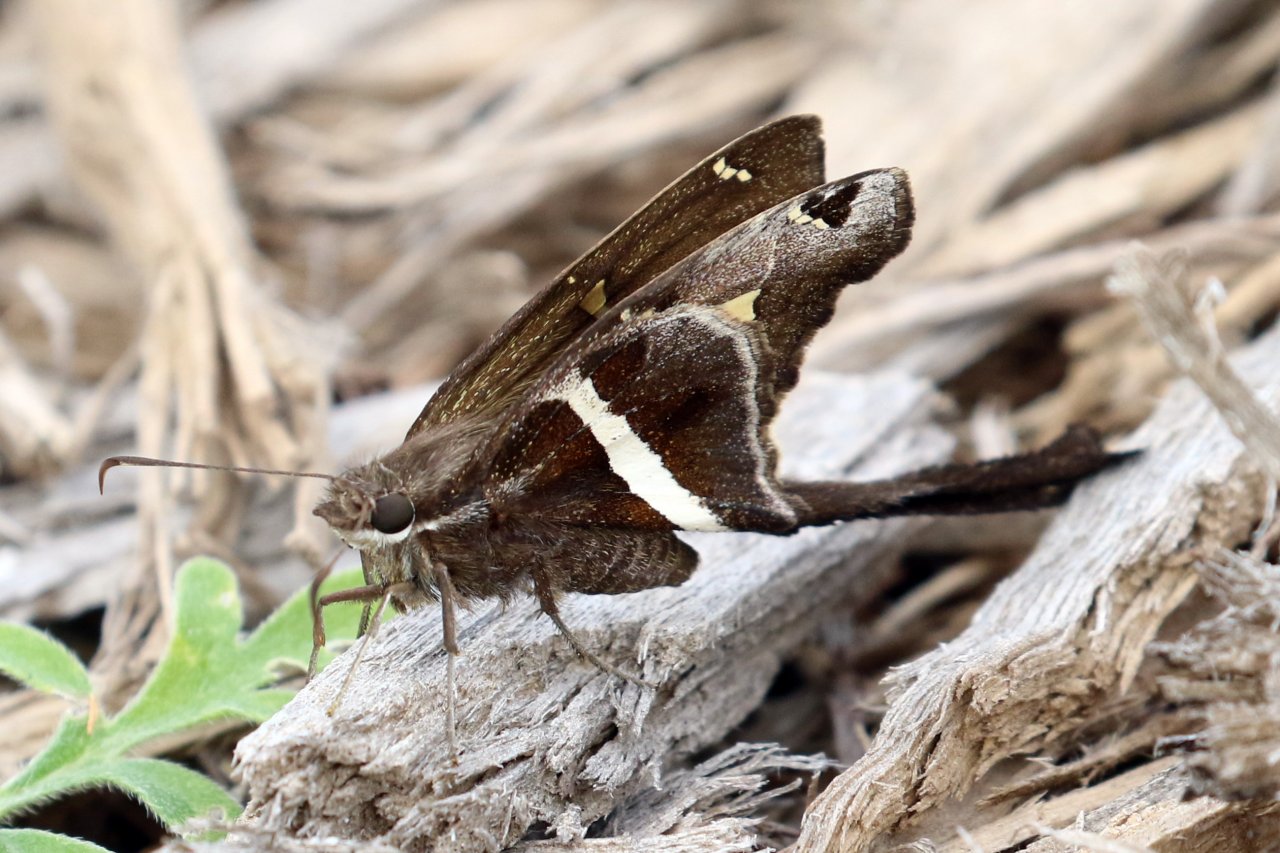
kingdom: Animalia
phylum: Arthropoda
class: Insecta
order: Lepidoptera
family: Hesperiidae
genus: Chioides
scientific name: Chioides catillus
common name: White-striped Longtail
